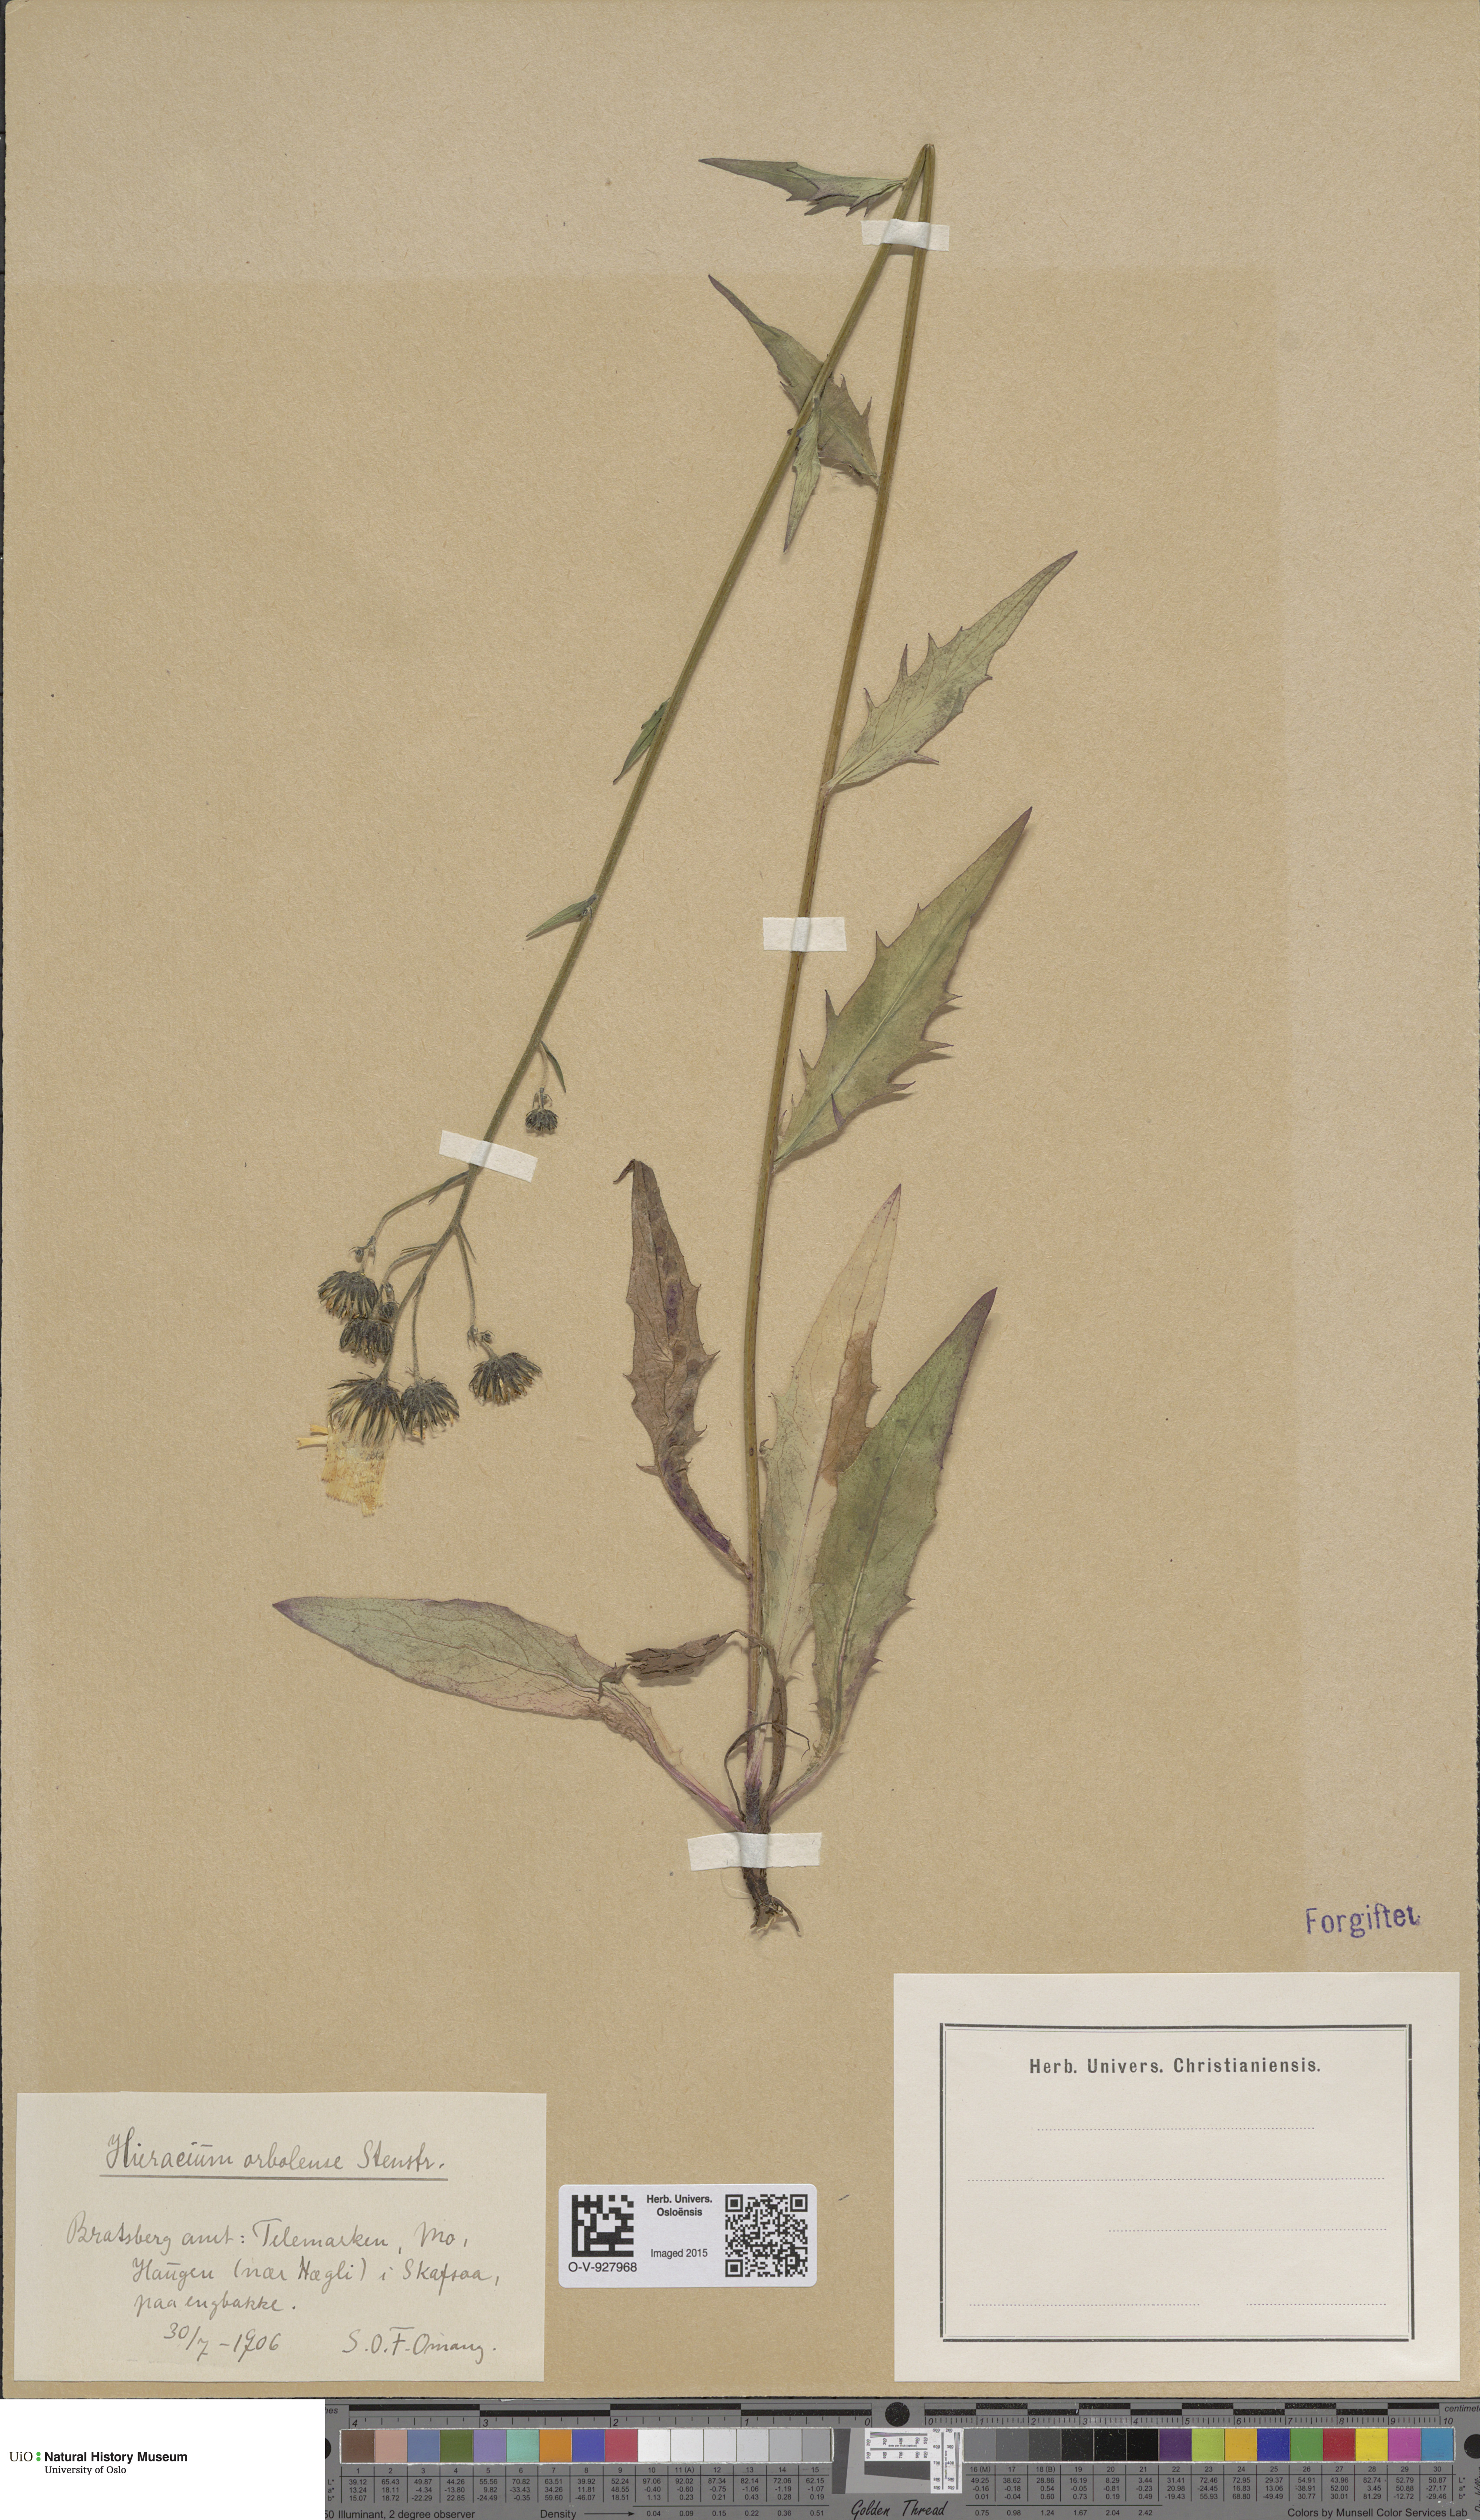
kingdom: Plantae
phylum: Tracheophyta
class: Magnoliopsida
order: Asterales
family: Asteraceae
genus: Hieracium
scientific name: Hieracium orbolense
